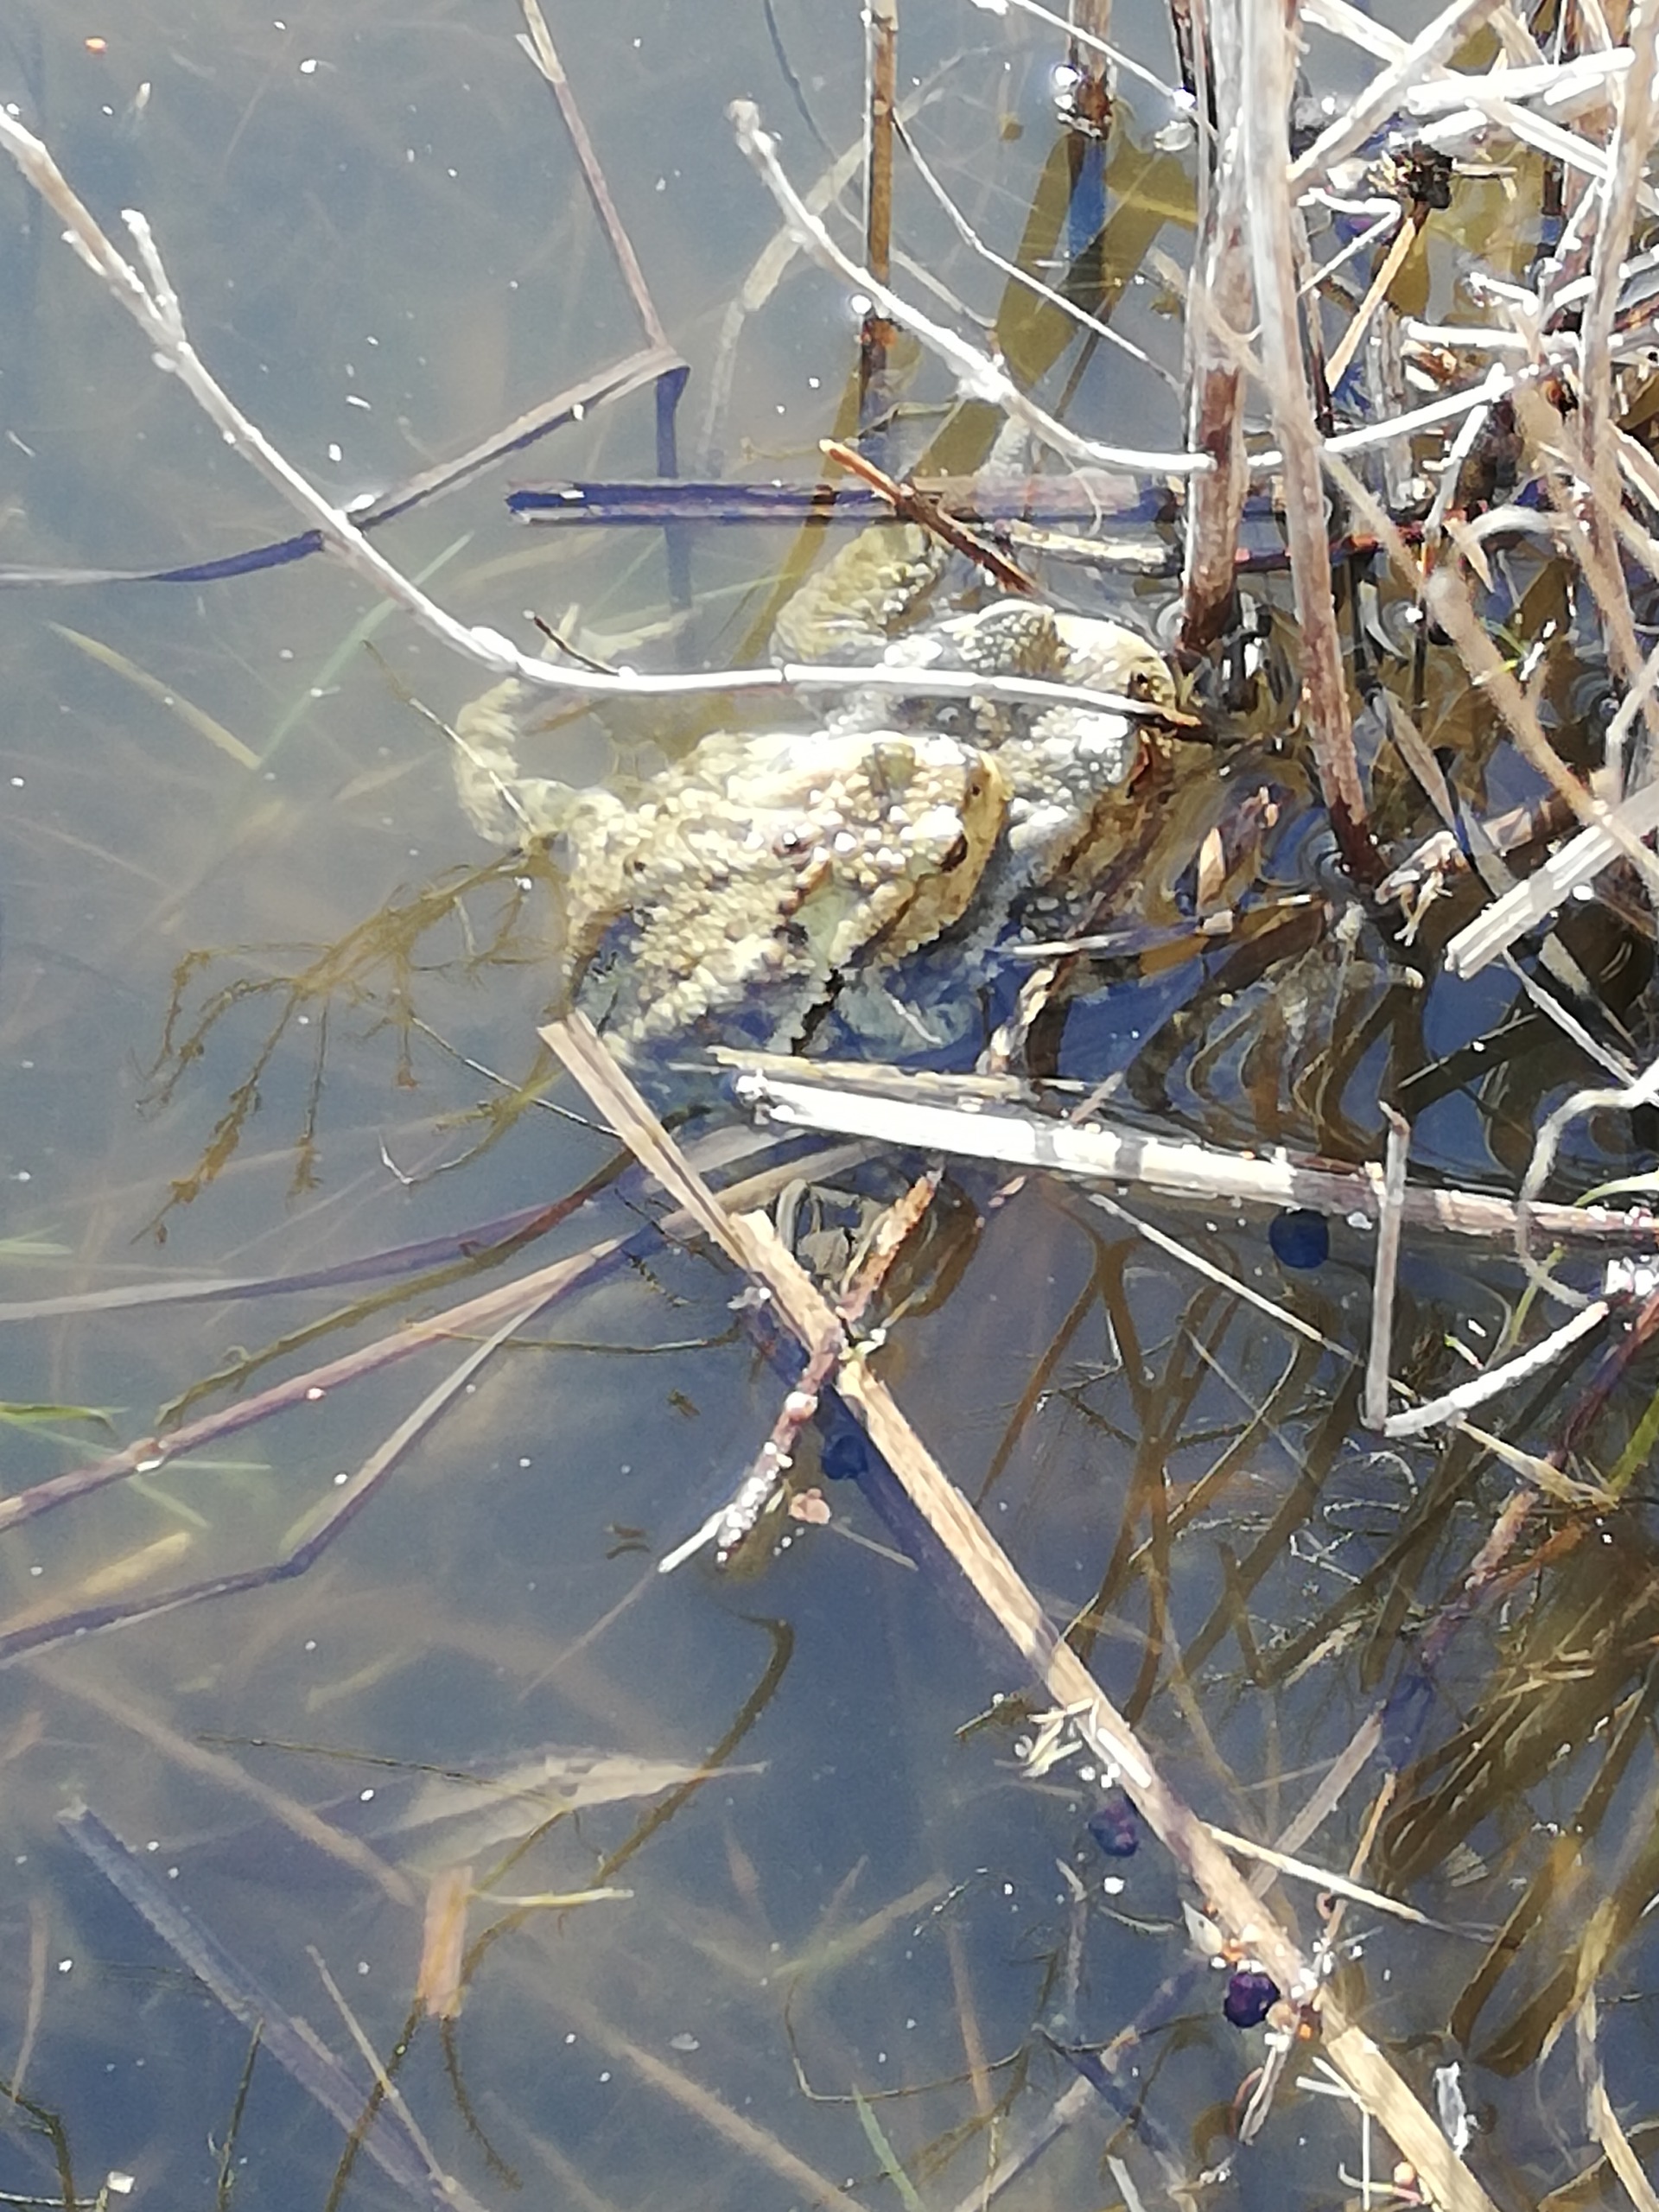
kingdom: Animalia
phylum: Chordata
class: Amphibia
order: Anura
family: Bufonidae
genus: Bufo
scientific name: Bufo bufo
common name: Skrubtudse
